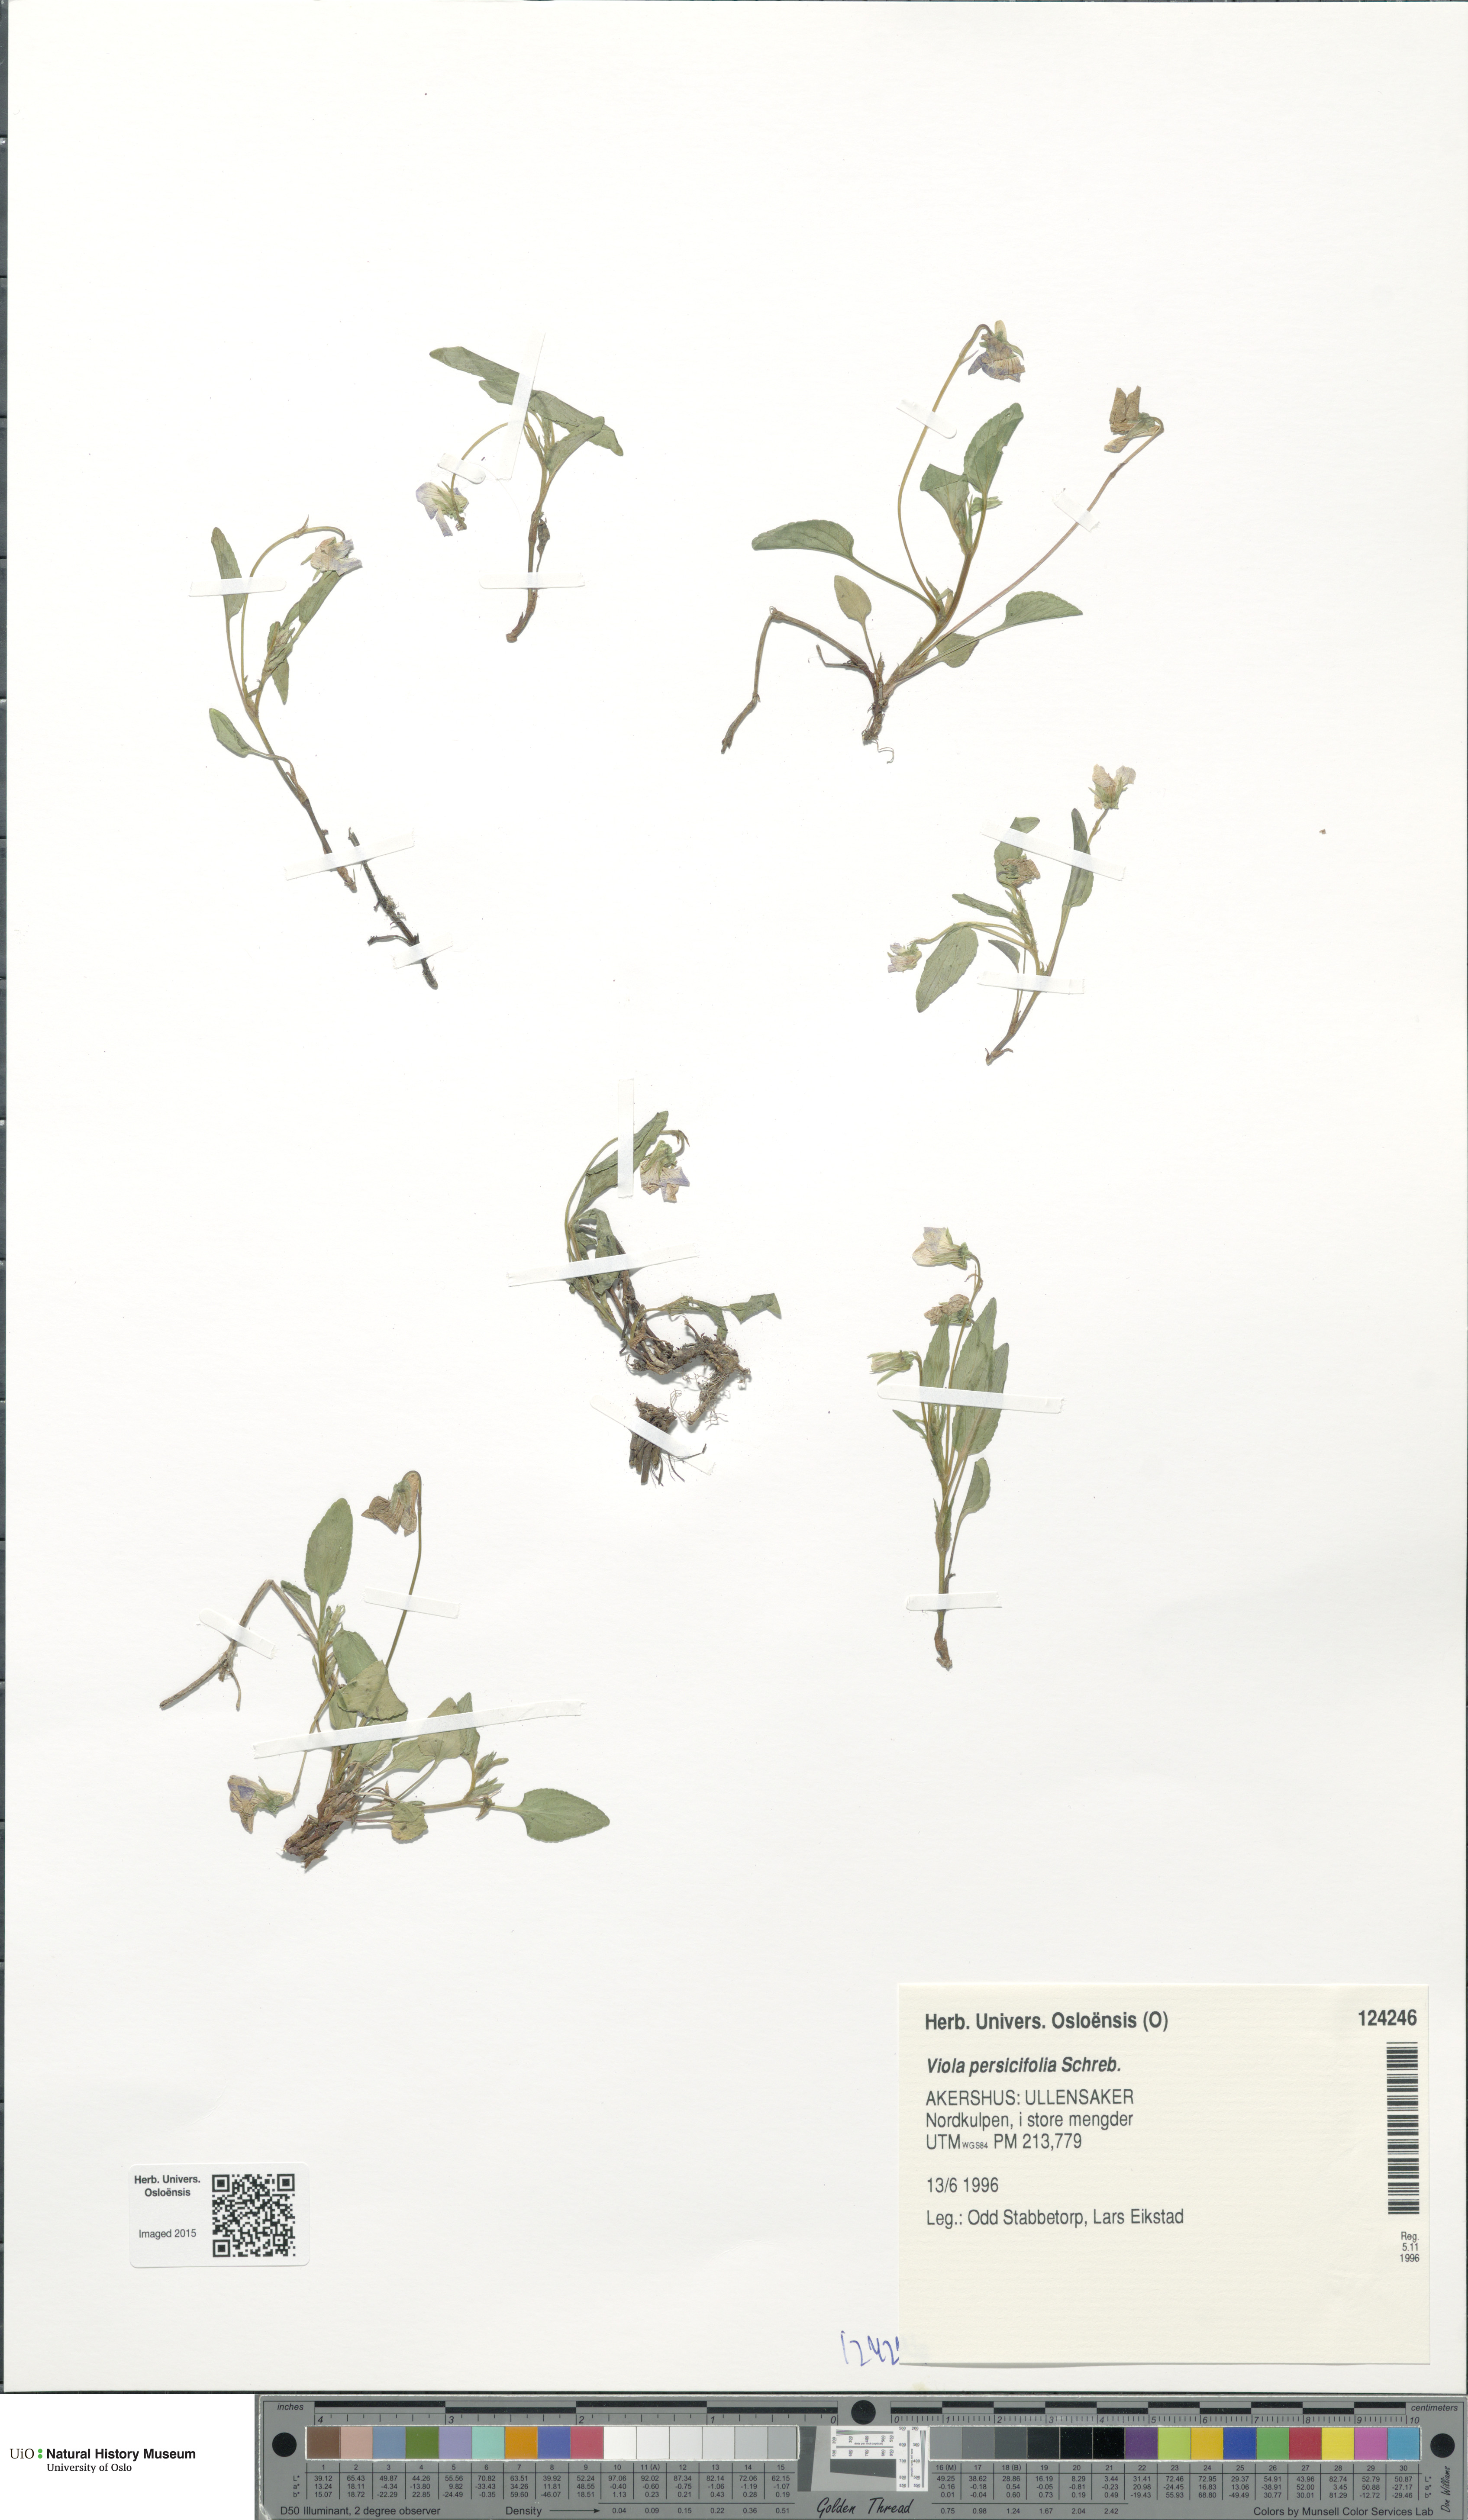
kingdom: Plantae
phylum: Tracheophyta
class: Magnoliopsida
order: Malpighiales
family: Violaceae
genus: Viola
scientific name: Viola stagnina
